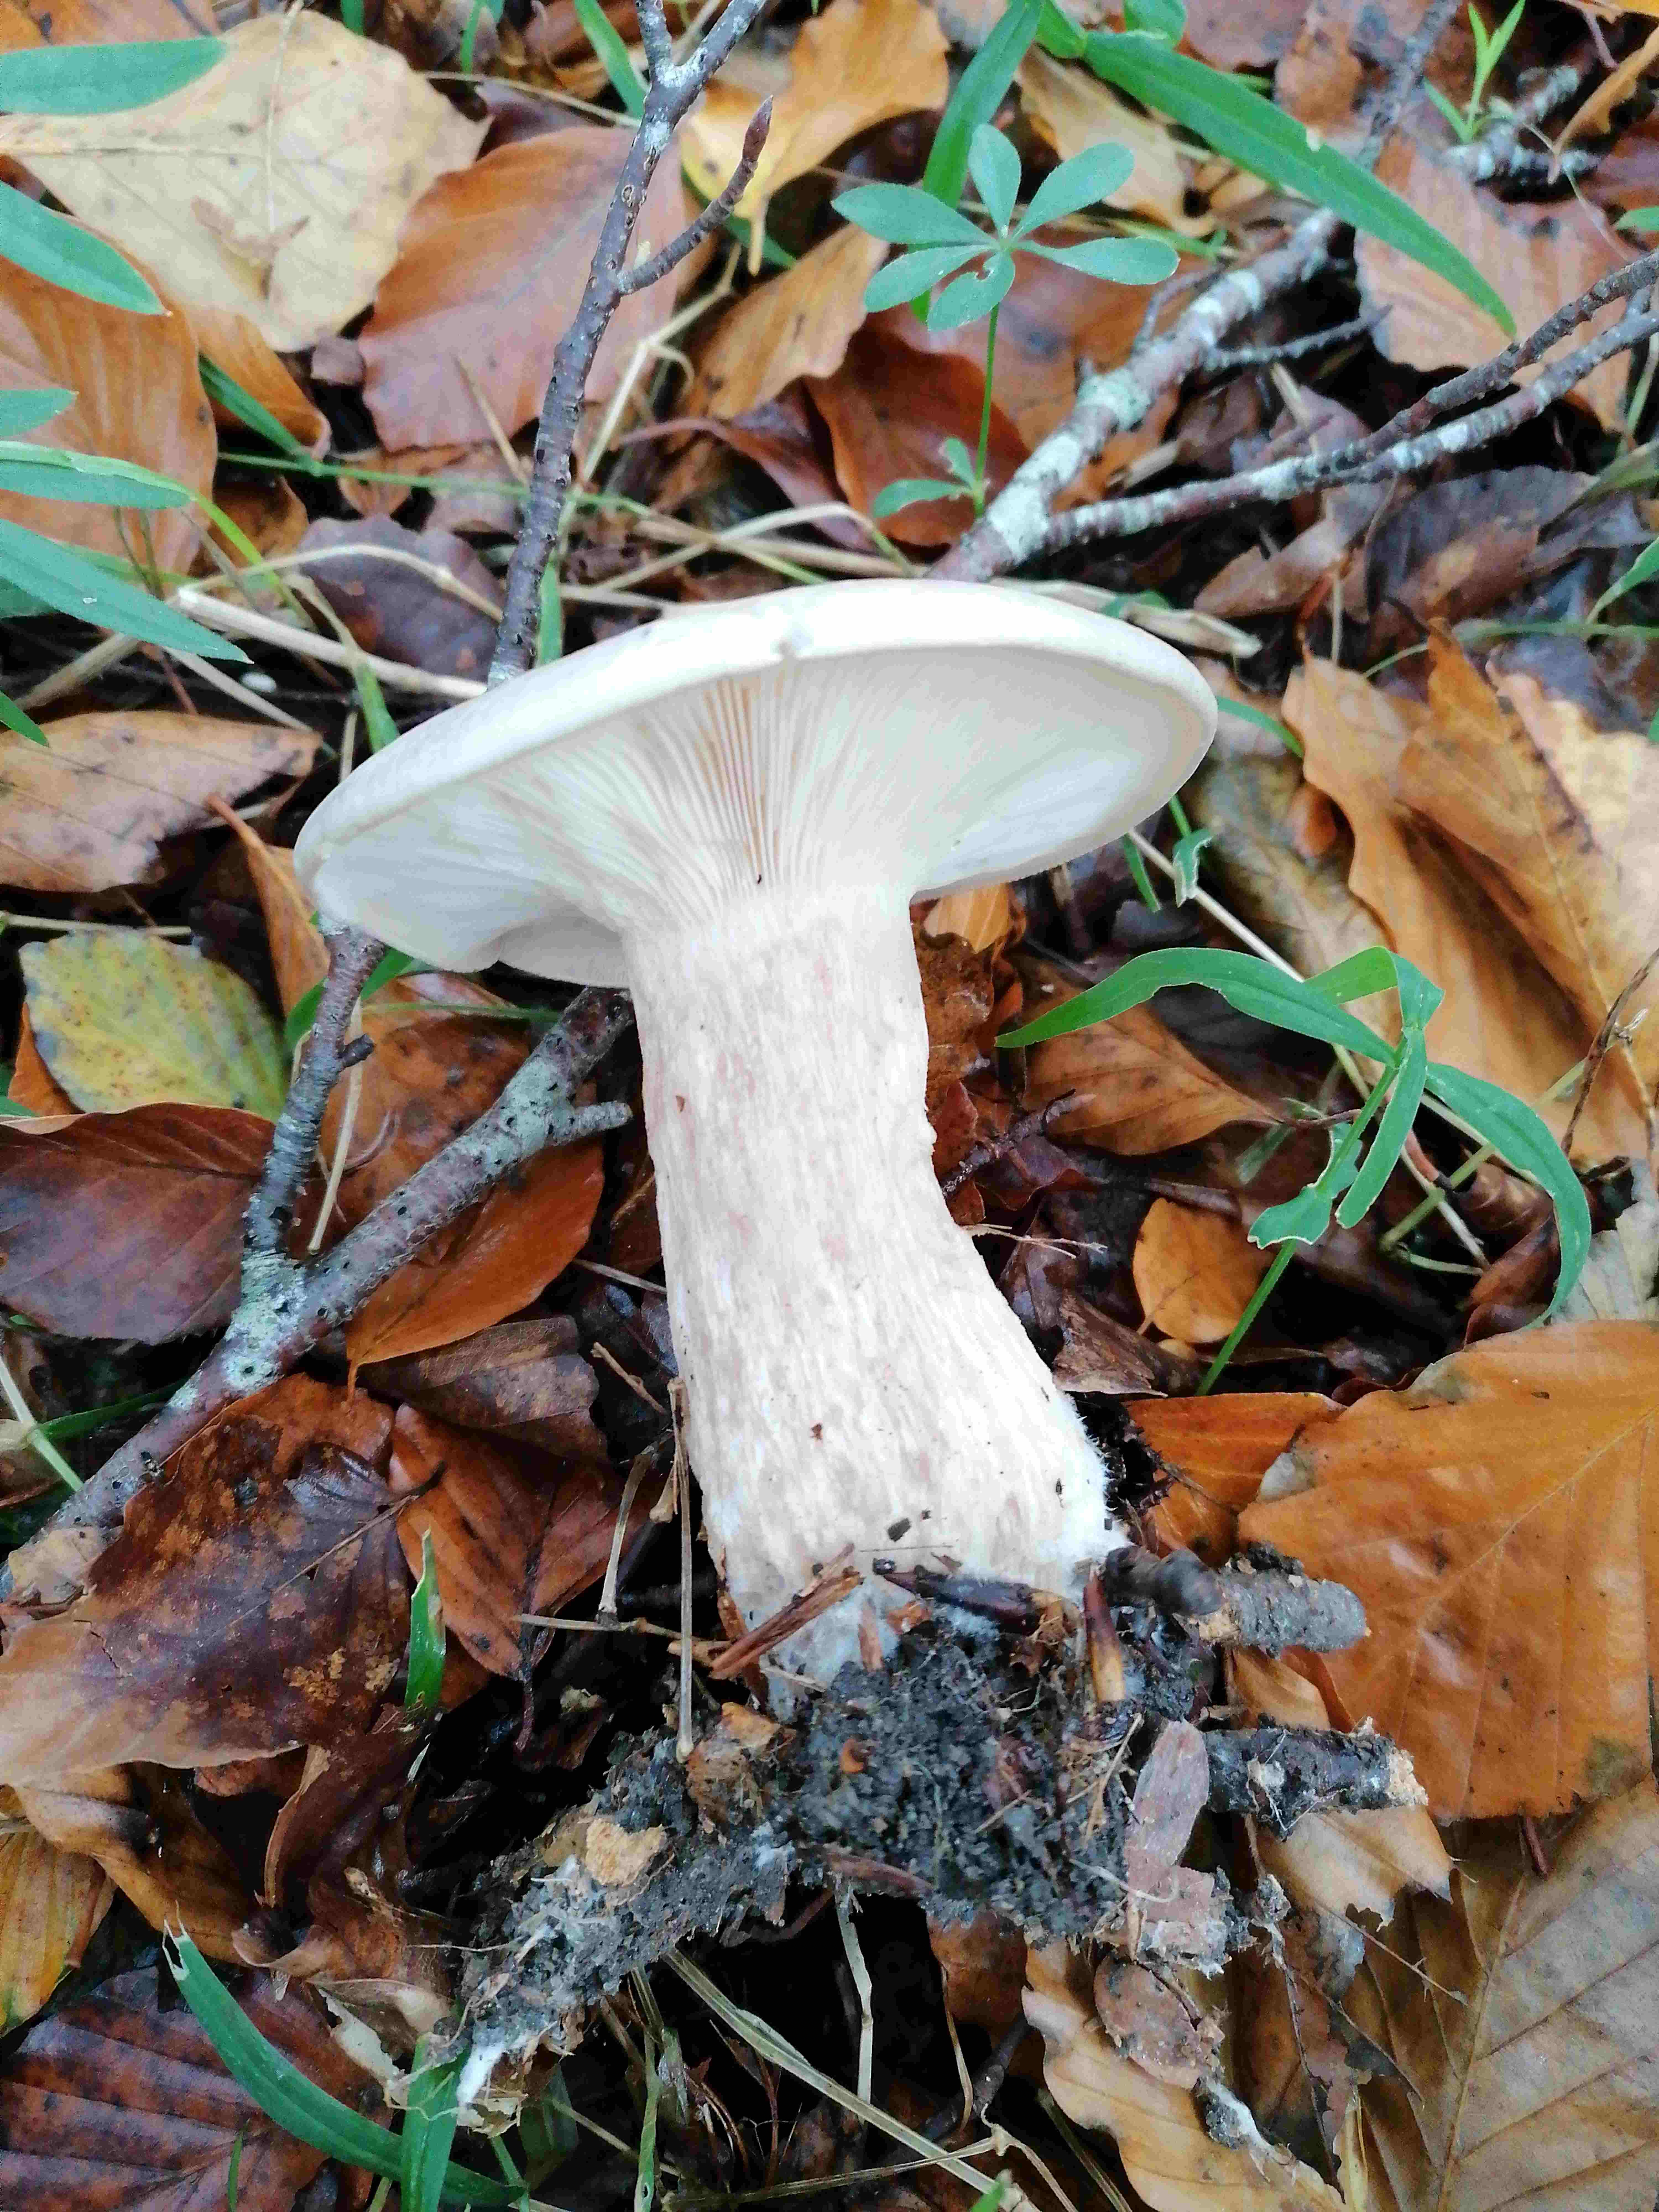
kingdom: Fungi
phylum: Basidiomycota
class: Agaricomycetes
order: Agaricales
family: Tricholomataceae
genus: Clitocybe
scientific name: Clitocybe nebularis
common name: tåge-tragthat
